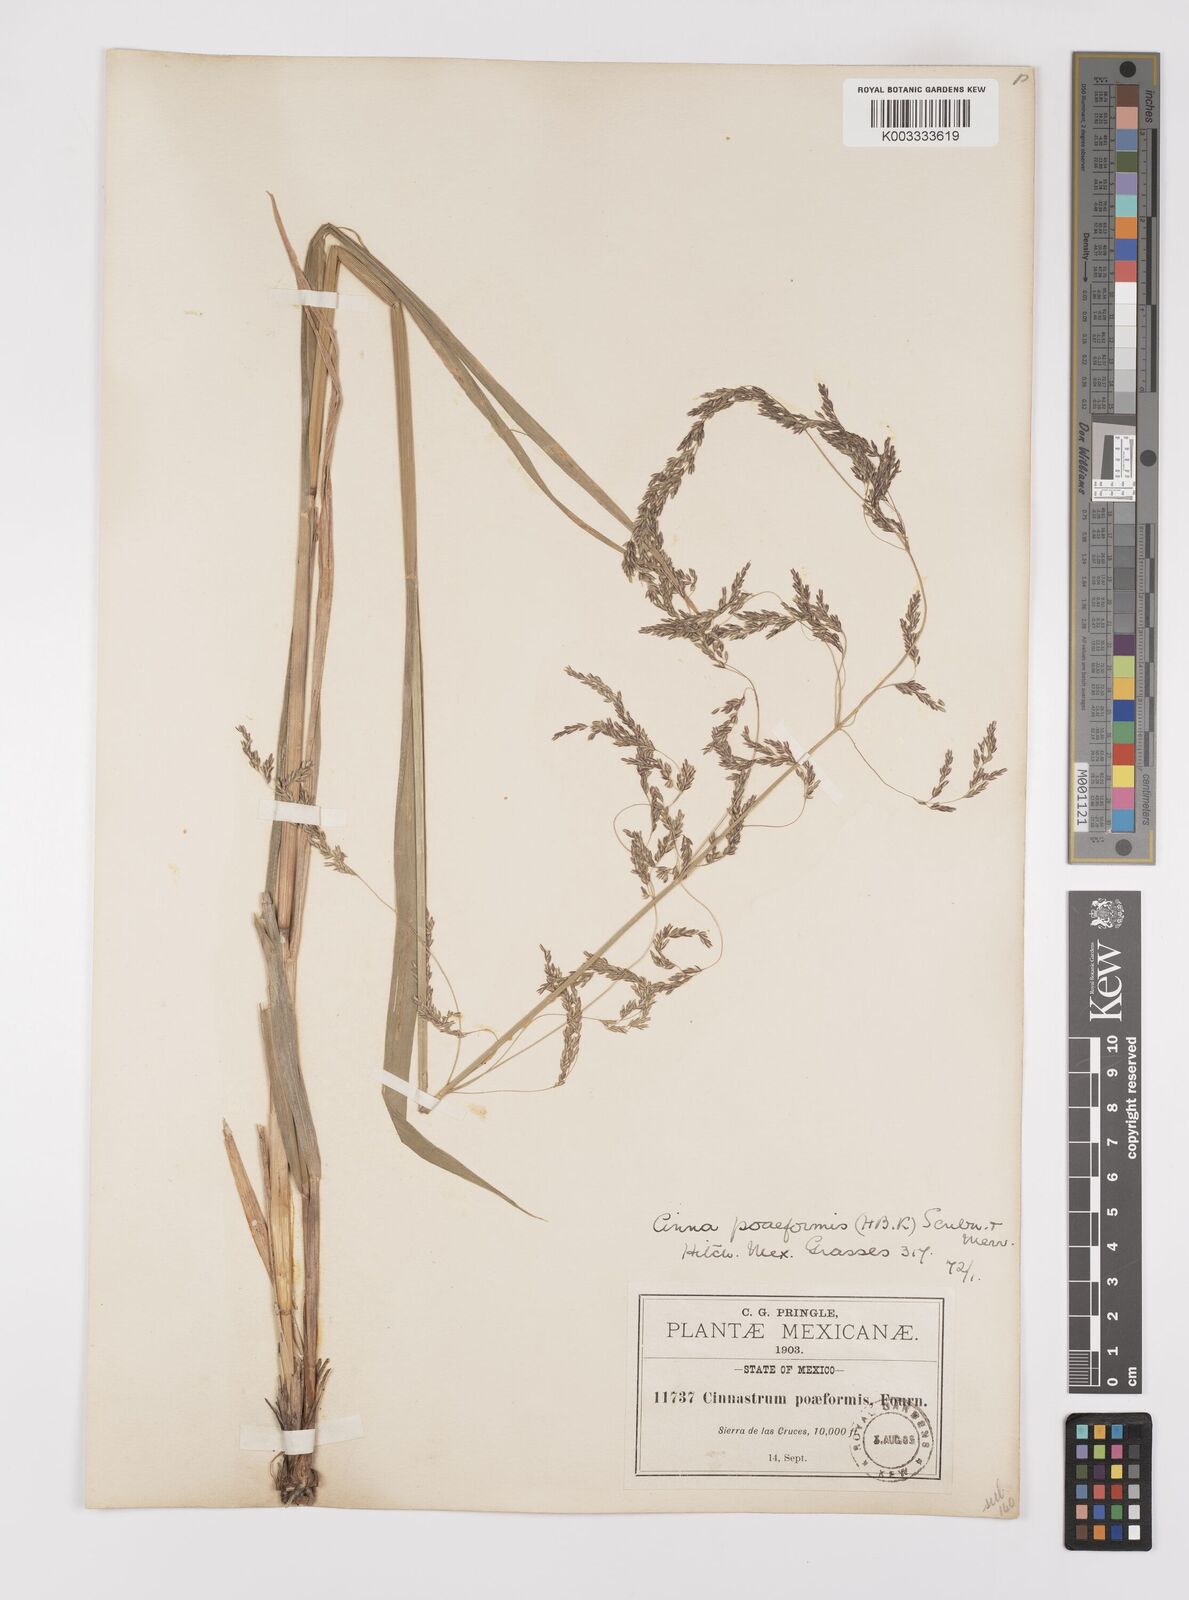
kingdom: Plantae
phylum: Tracheophyta
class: Liliopsida
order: Poales
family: Poaceae
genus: Cinnastrum
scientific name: Cinnastrum poiforme
